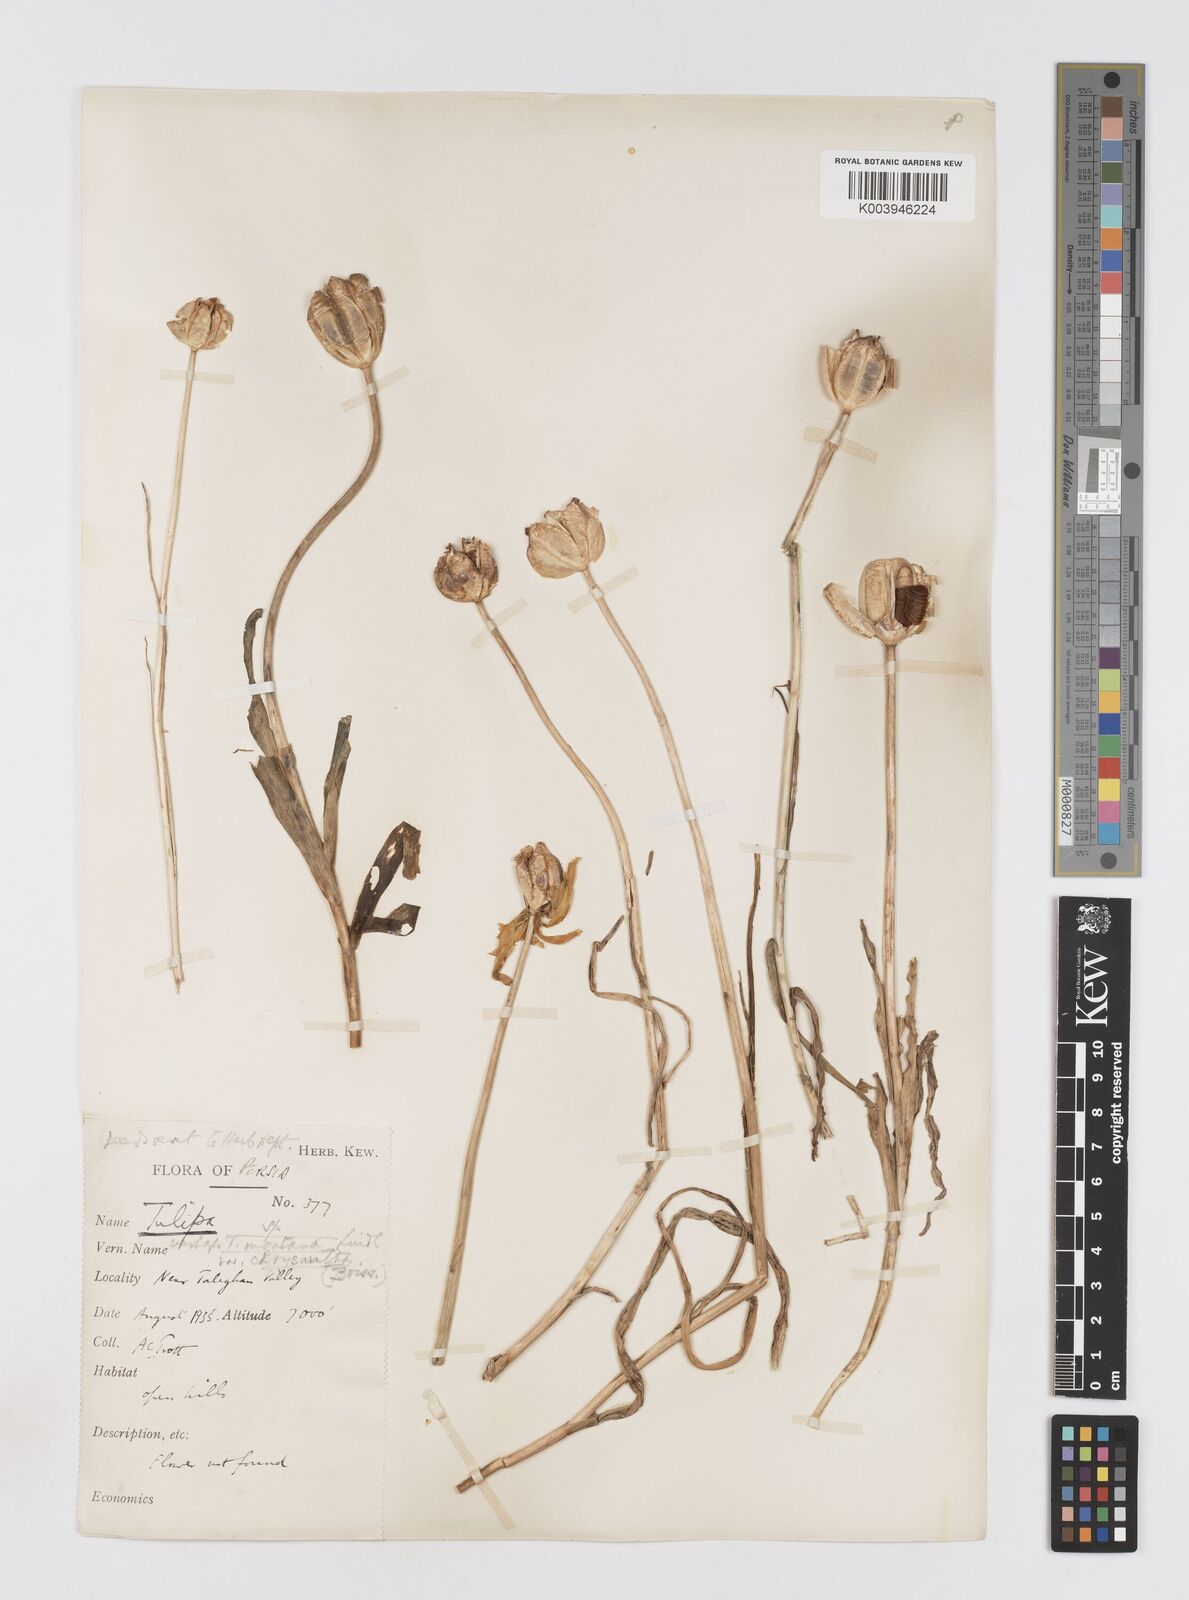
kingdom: Plantae
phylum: Tracheophyta
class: Liliopsida
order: Liliales
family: Liliaceae
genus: Tulipa
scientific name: Tulipa montana
